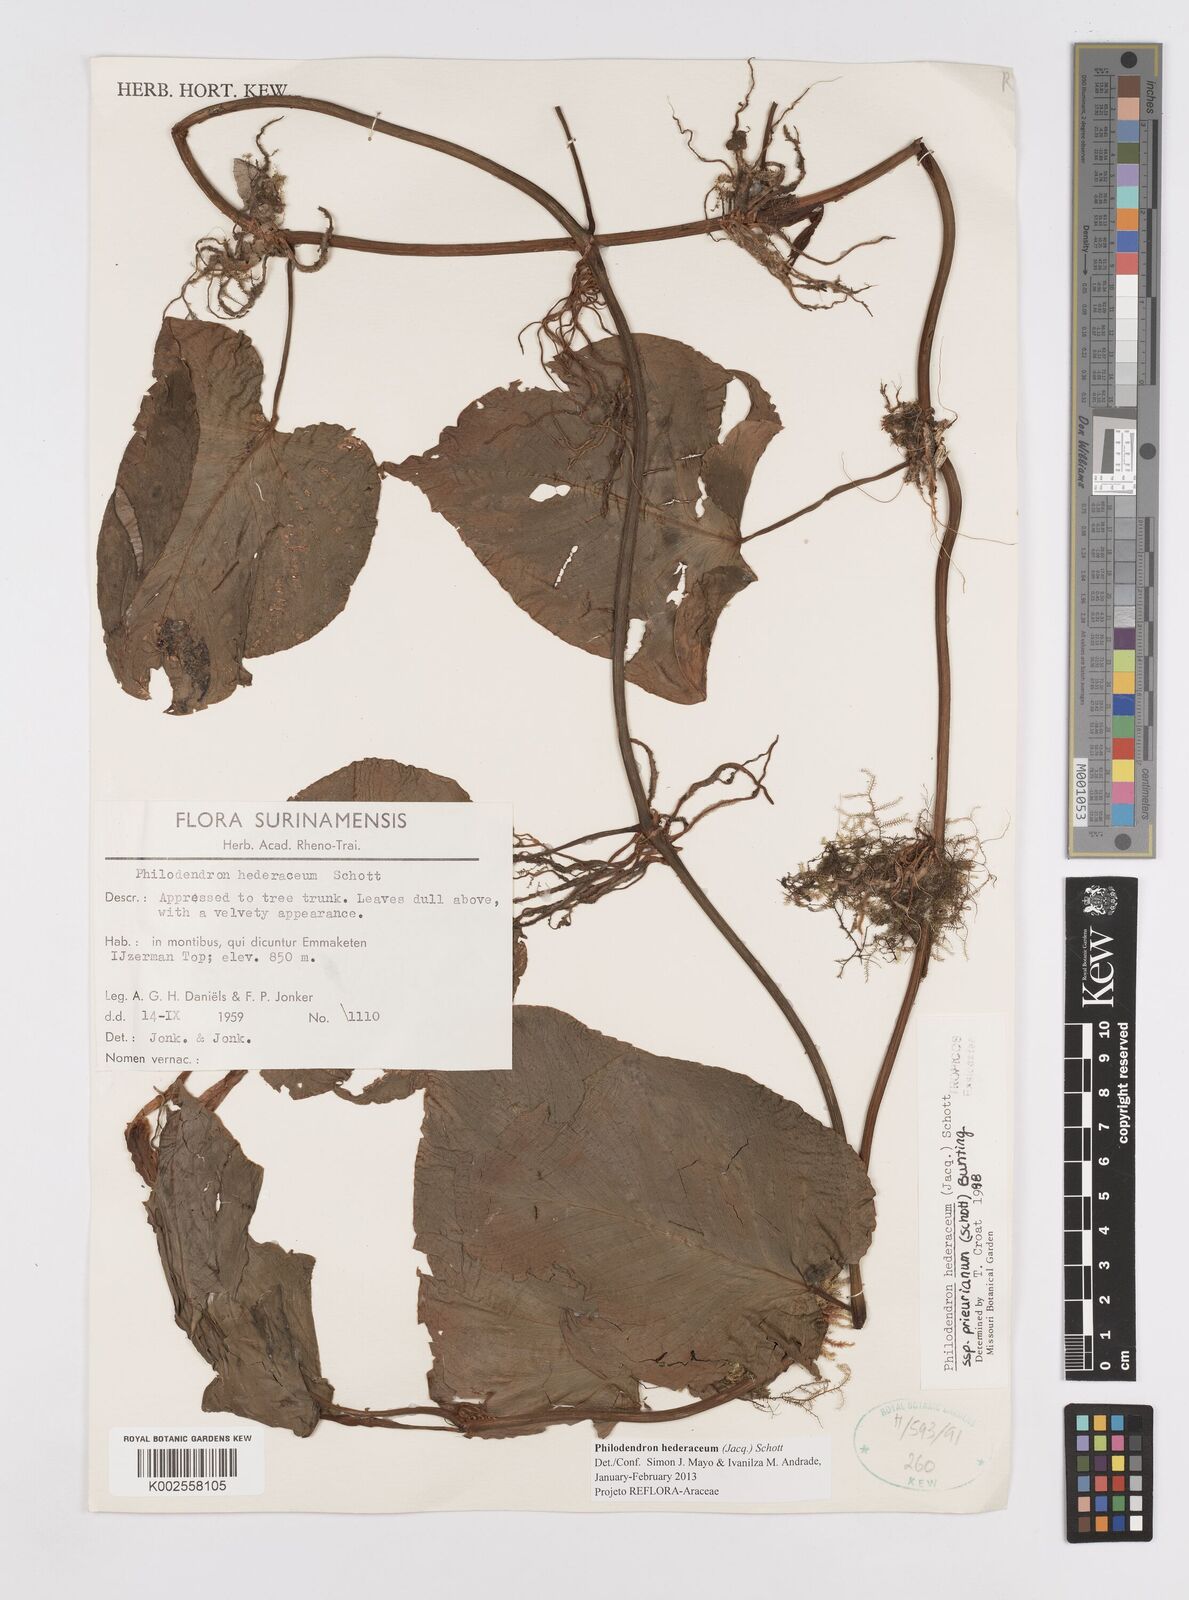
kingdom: Plantae
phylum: Tracheophyta
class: Liliopsida
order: Alismatales
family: Araceae
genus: Philodendron
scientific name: Philodendron hederaceum
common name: Vilevine
